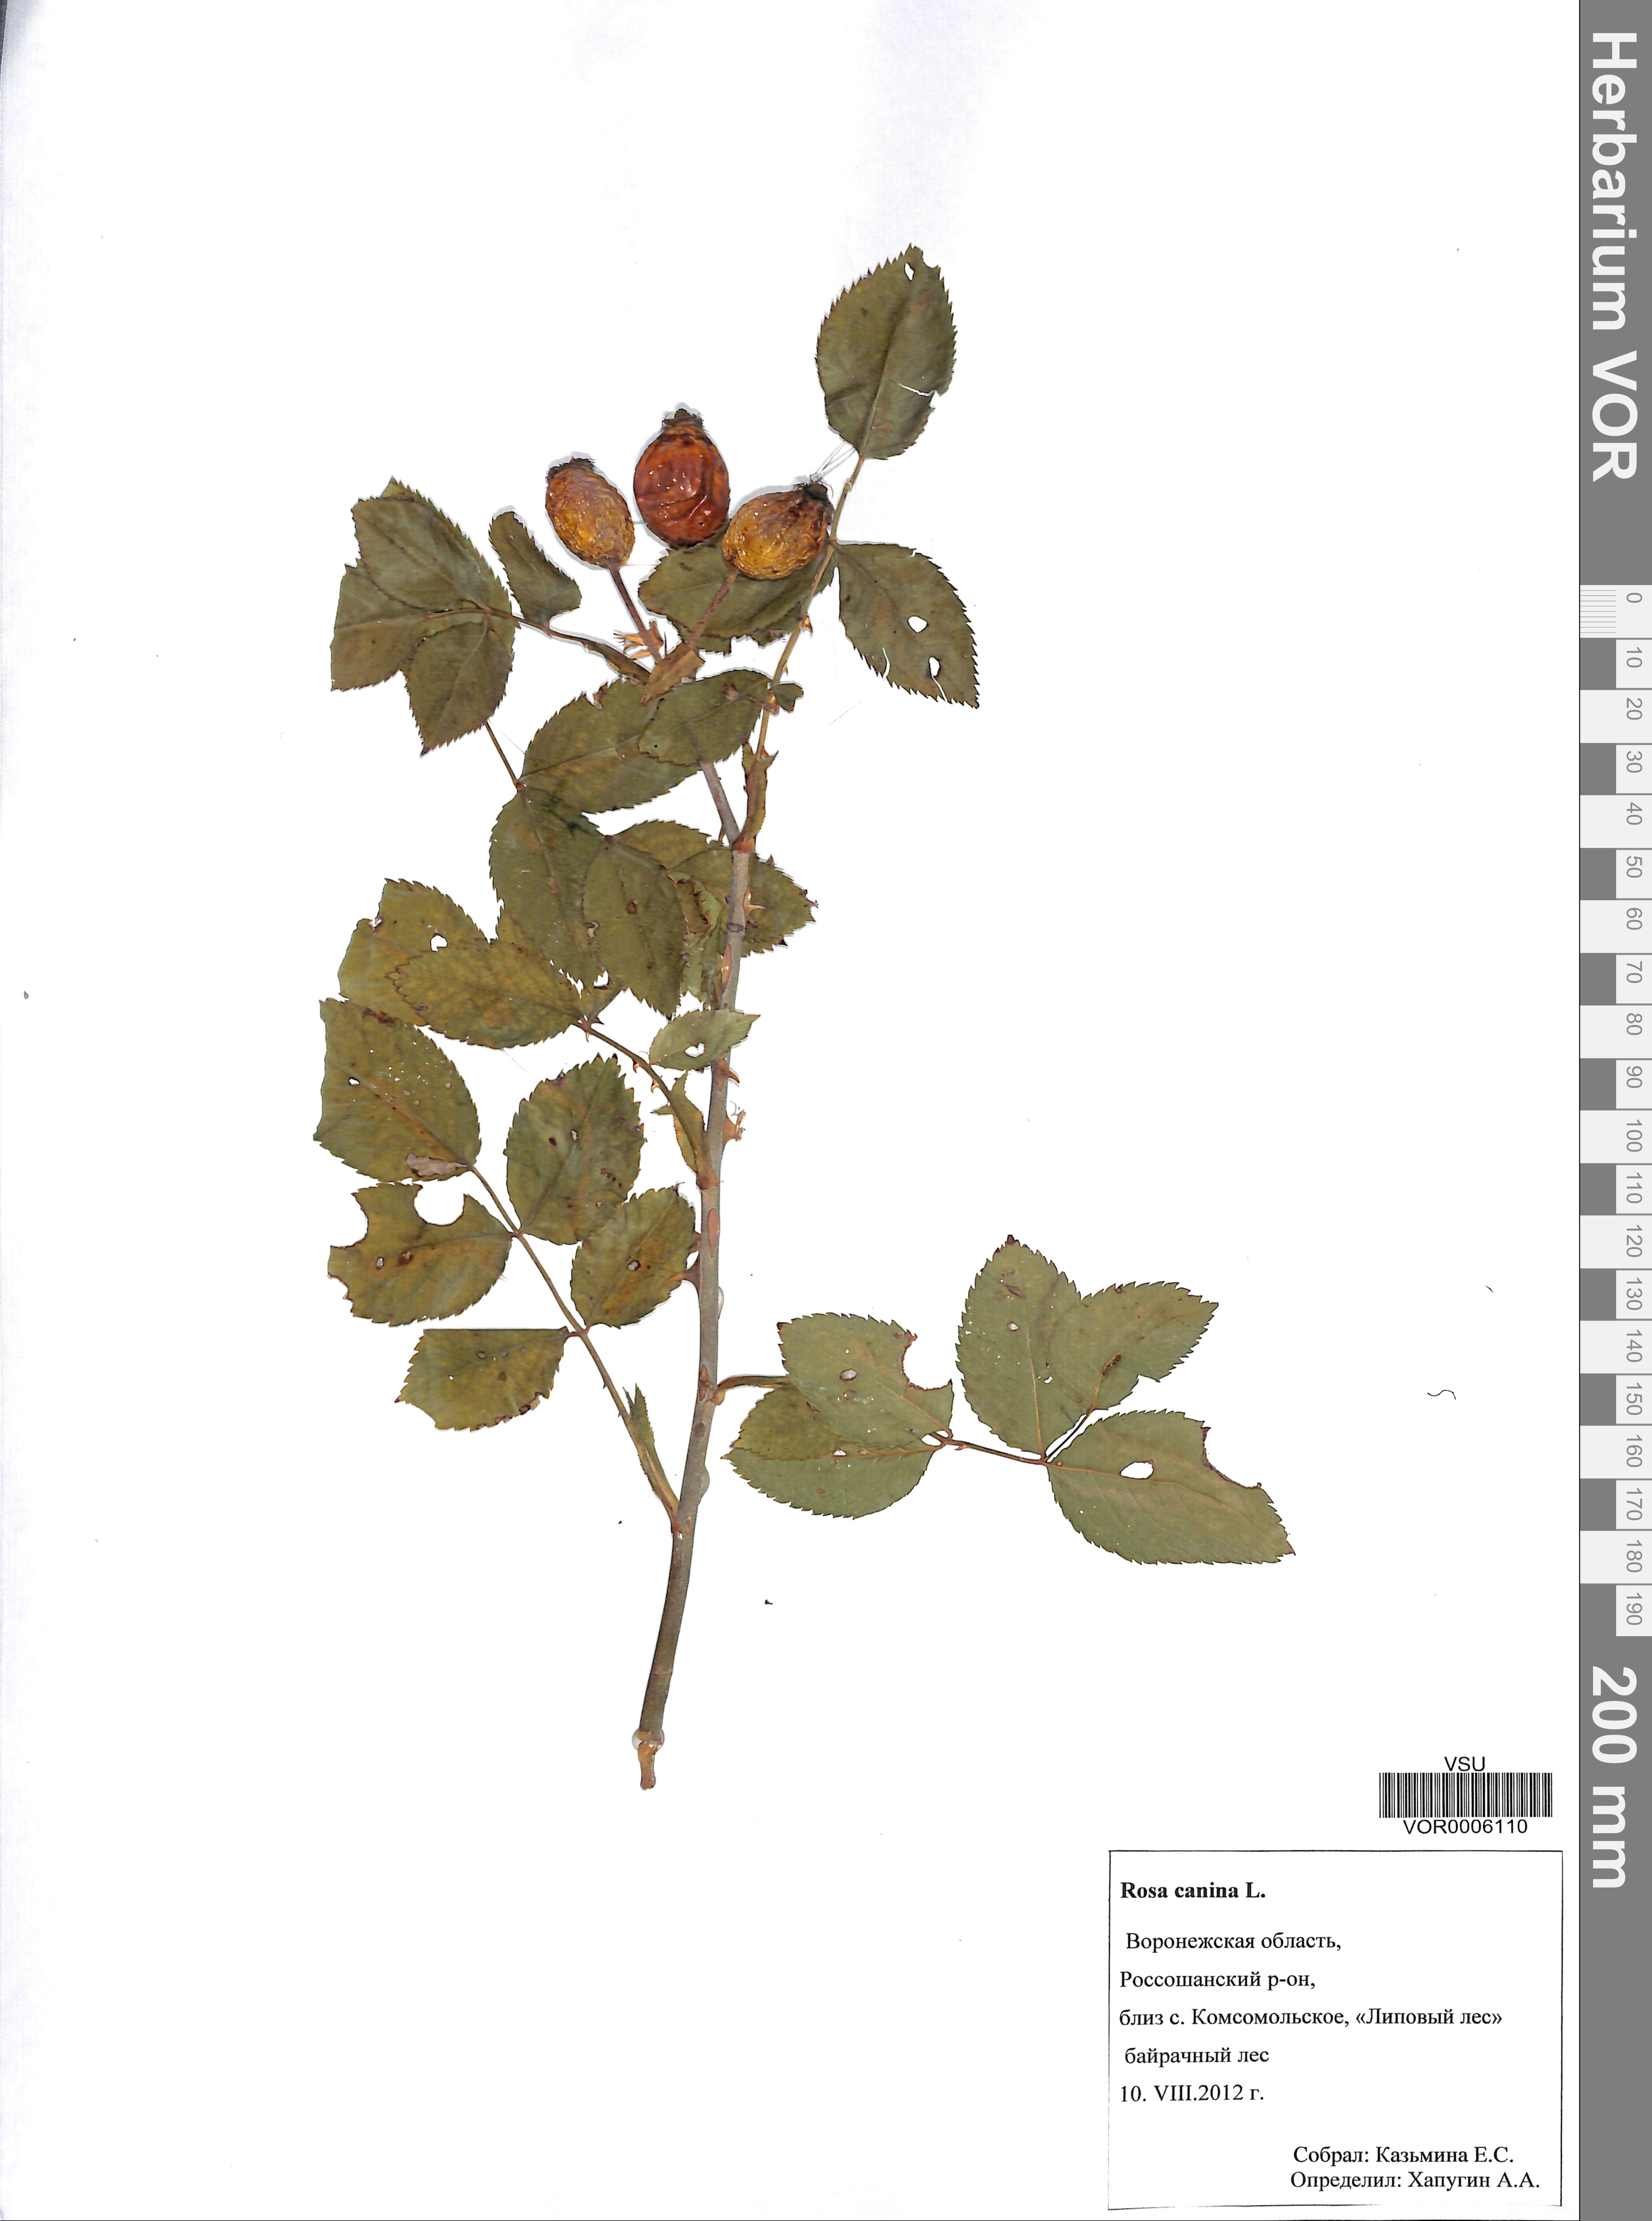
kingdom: Plantae
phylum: Tracheophyta
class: Magnoliopsida
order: Rosales
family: Rosaceae
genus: Rosa
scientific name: Rosa canina
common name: Dog rose
